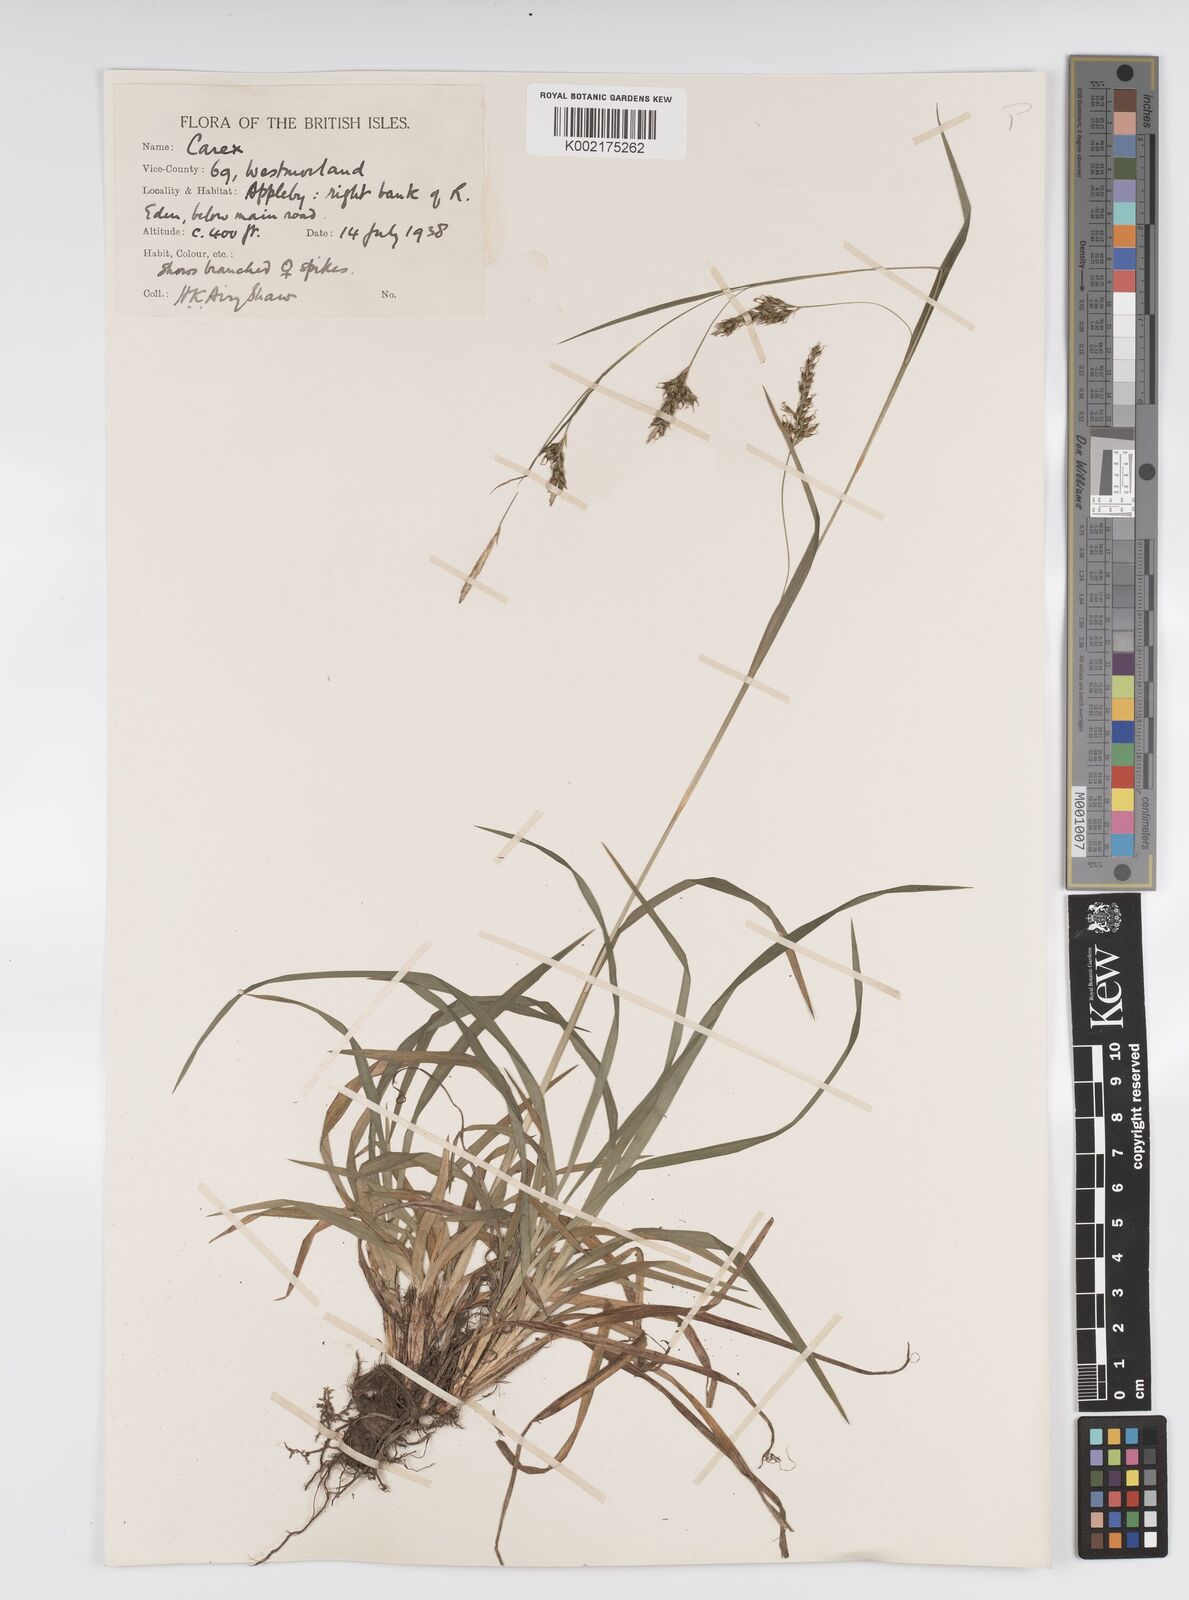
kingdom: Plantae
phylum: Tracheophyta
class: Liliopsida
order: Poales
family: Cyperaceae
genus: Carex
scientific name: Carex sylvatica
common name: Wood-sedge
